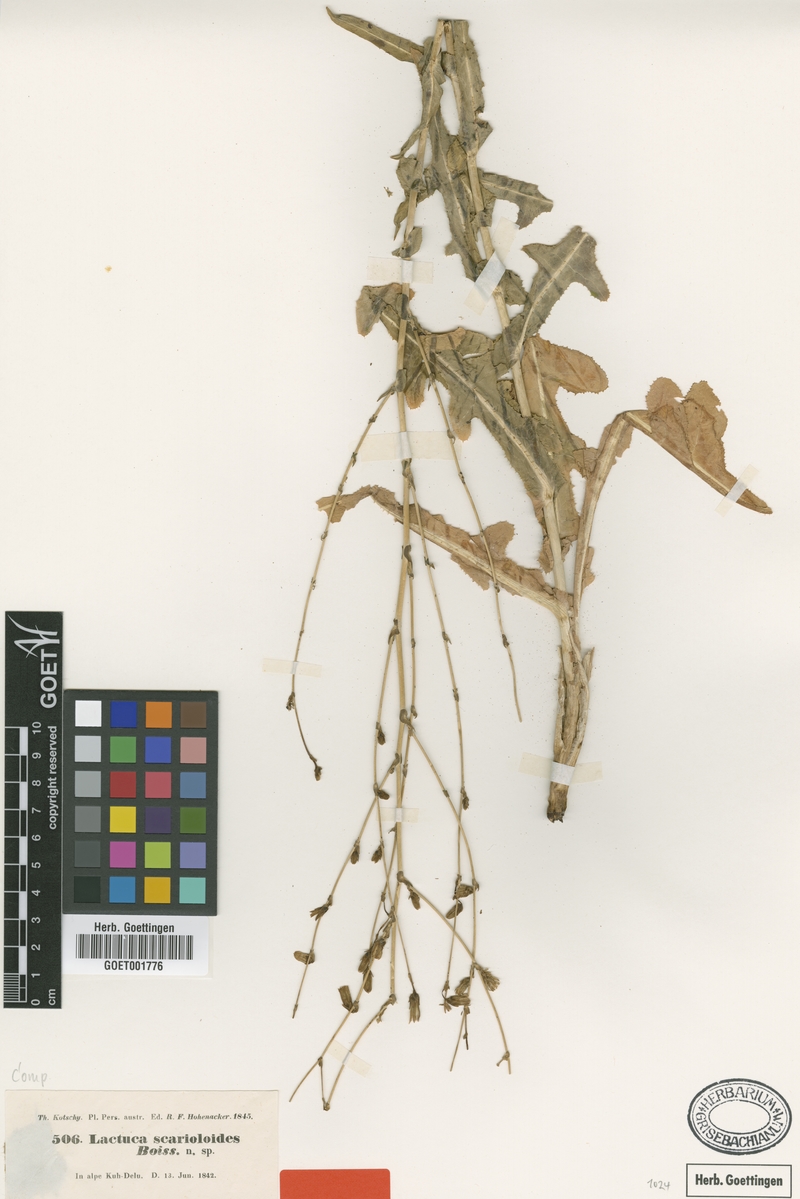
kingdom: Plantae
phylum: Tracheophyta
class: Magnoliopsida
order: Asterales
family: Asteraceae
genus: Lactuca
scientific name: Lactuca scarioloides
